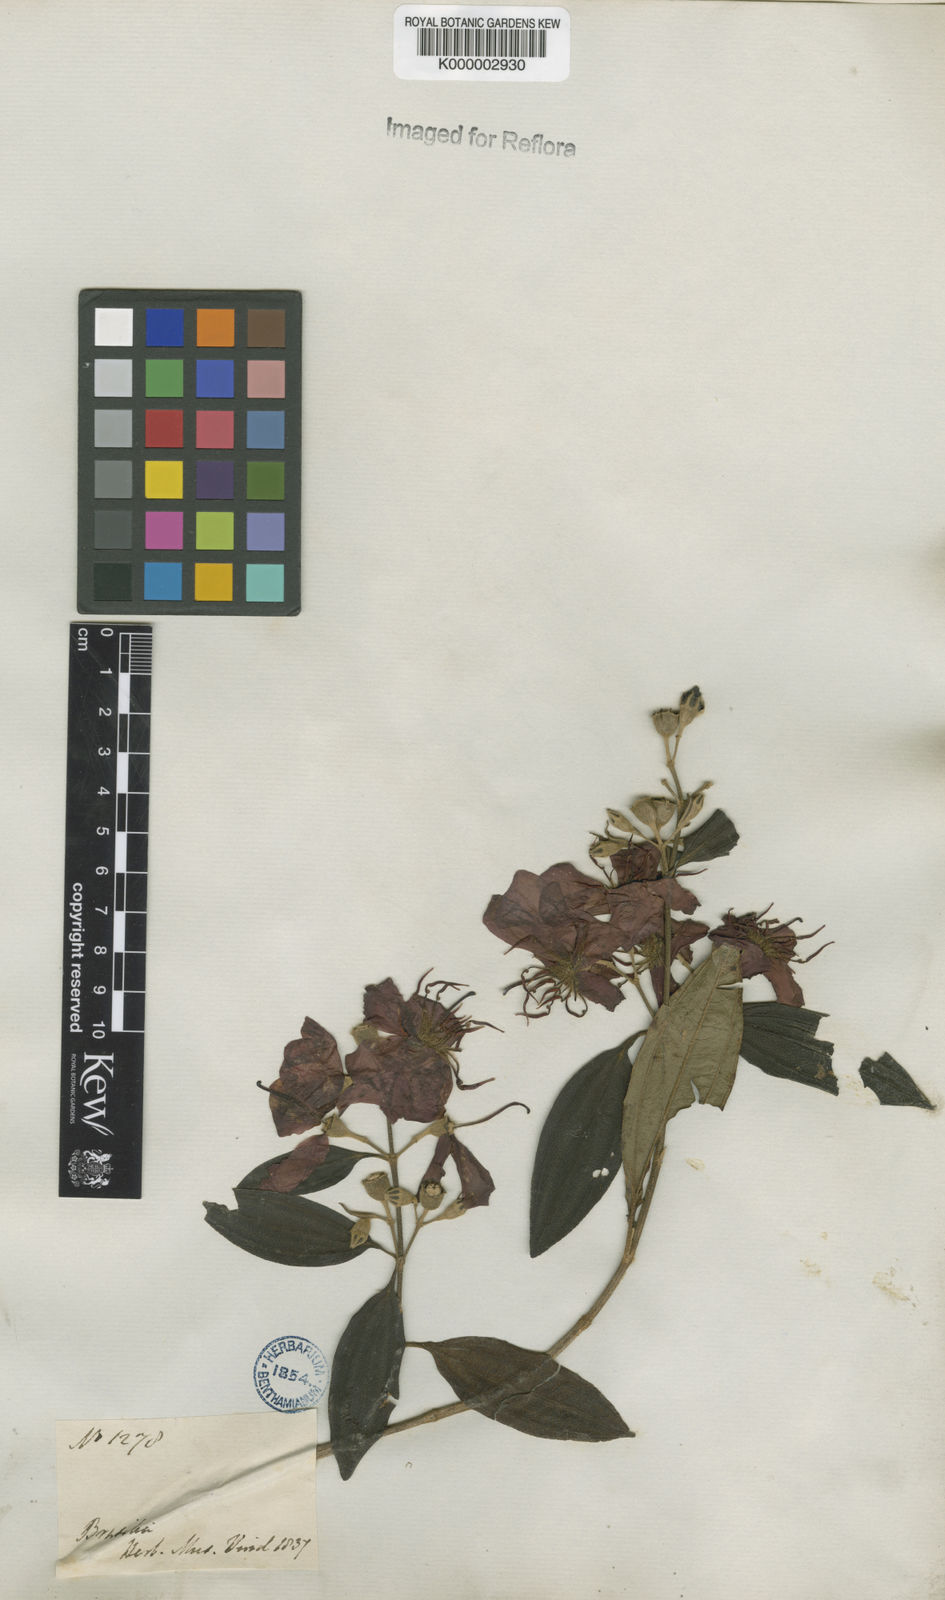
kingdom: Plantae
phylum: Tracheophyta
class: Magnoliopsida
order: Myrtales
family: Melastomataceae
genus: Pleroma
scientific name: Pleroma candolleanum
